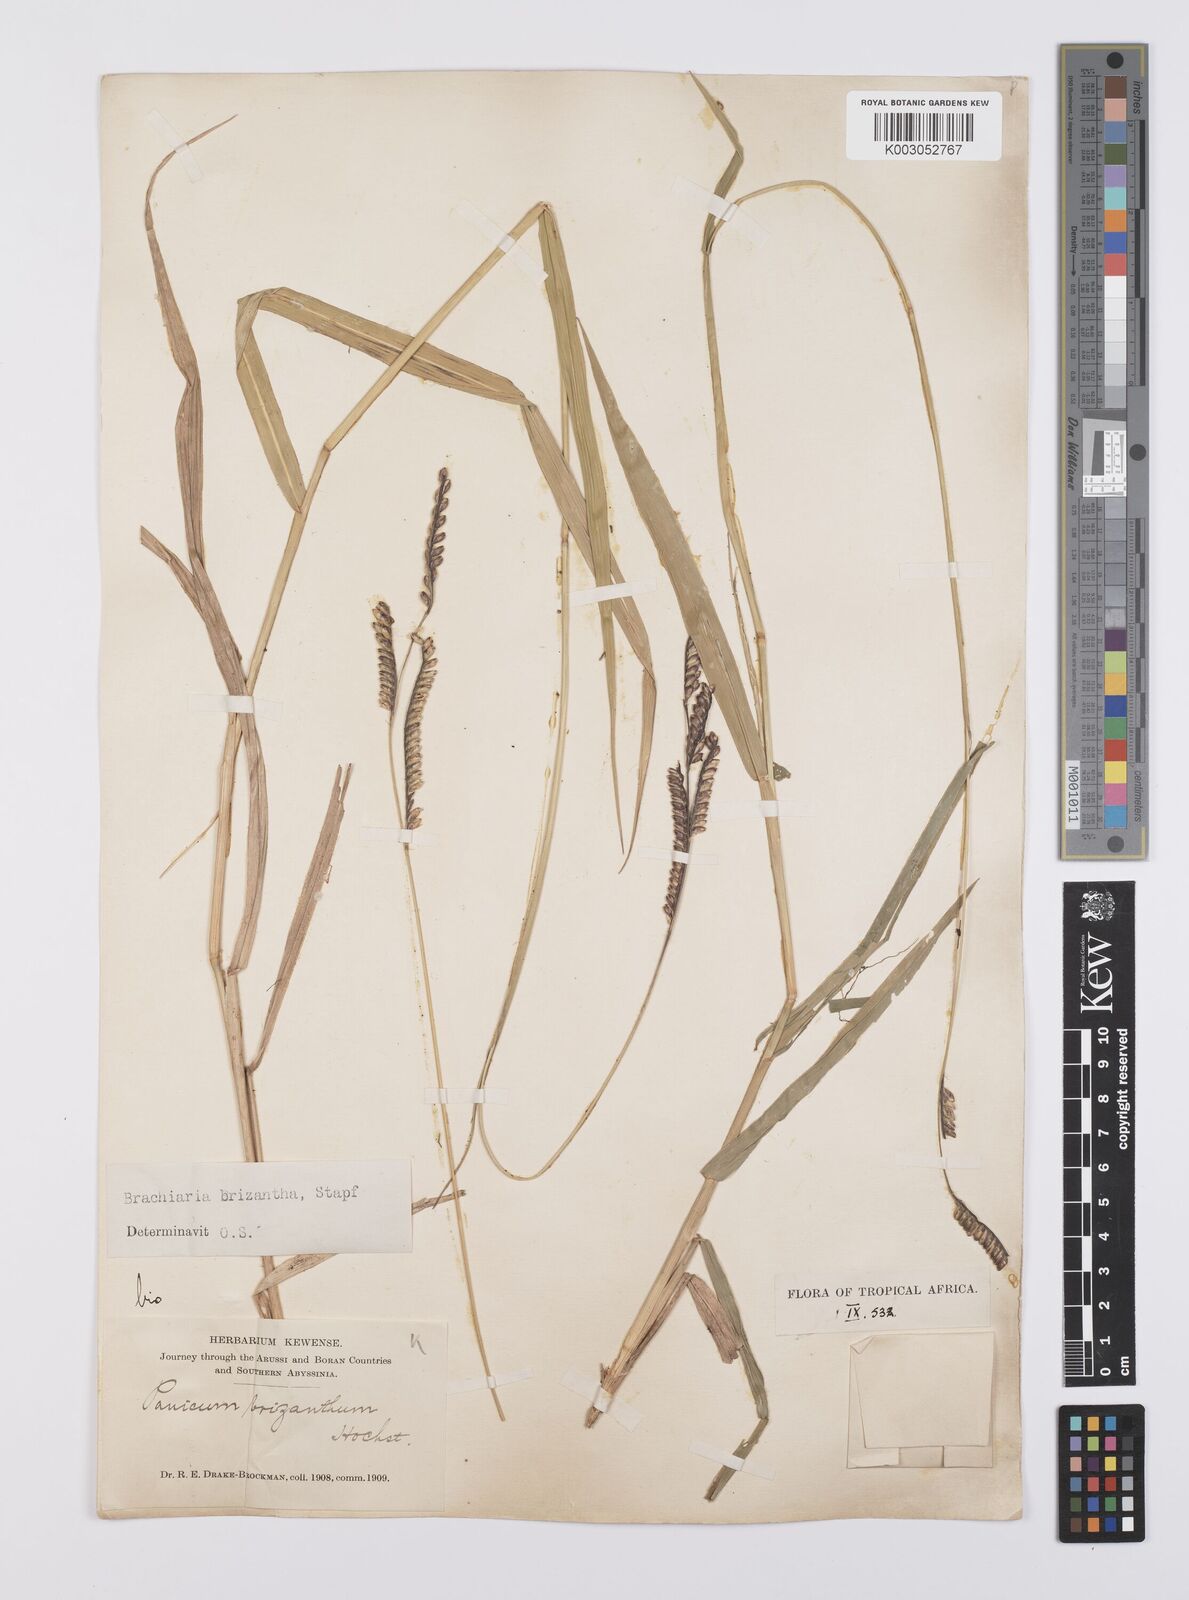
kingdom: Plantae
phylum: Tracheophyta
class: Liliopsida
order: Poales
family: Poaceae
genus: Urochloa
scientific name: Urochloa brizantha
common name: Palisade signalgrass
